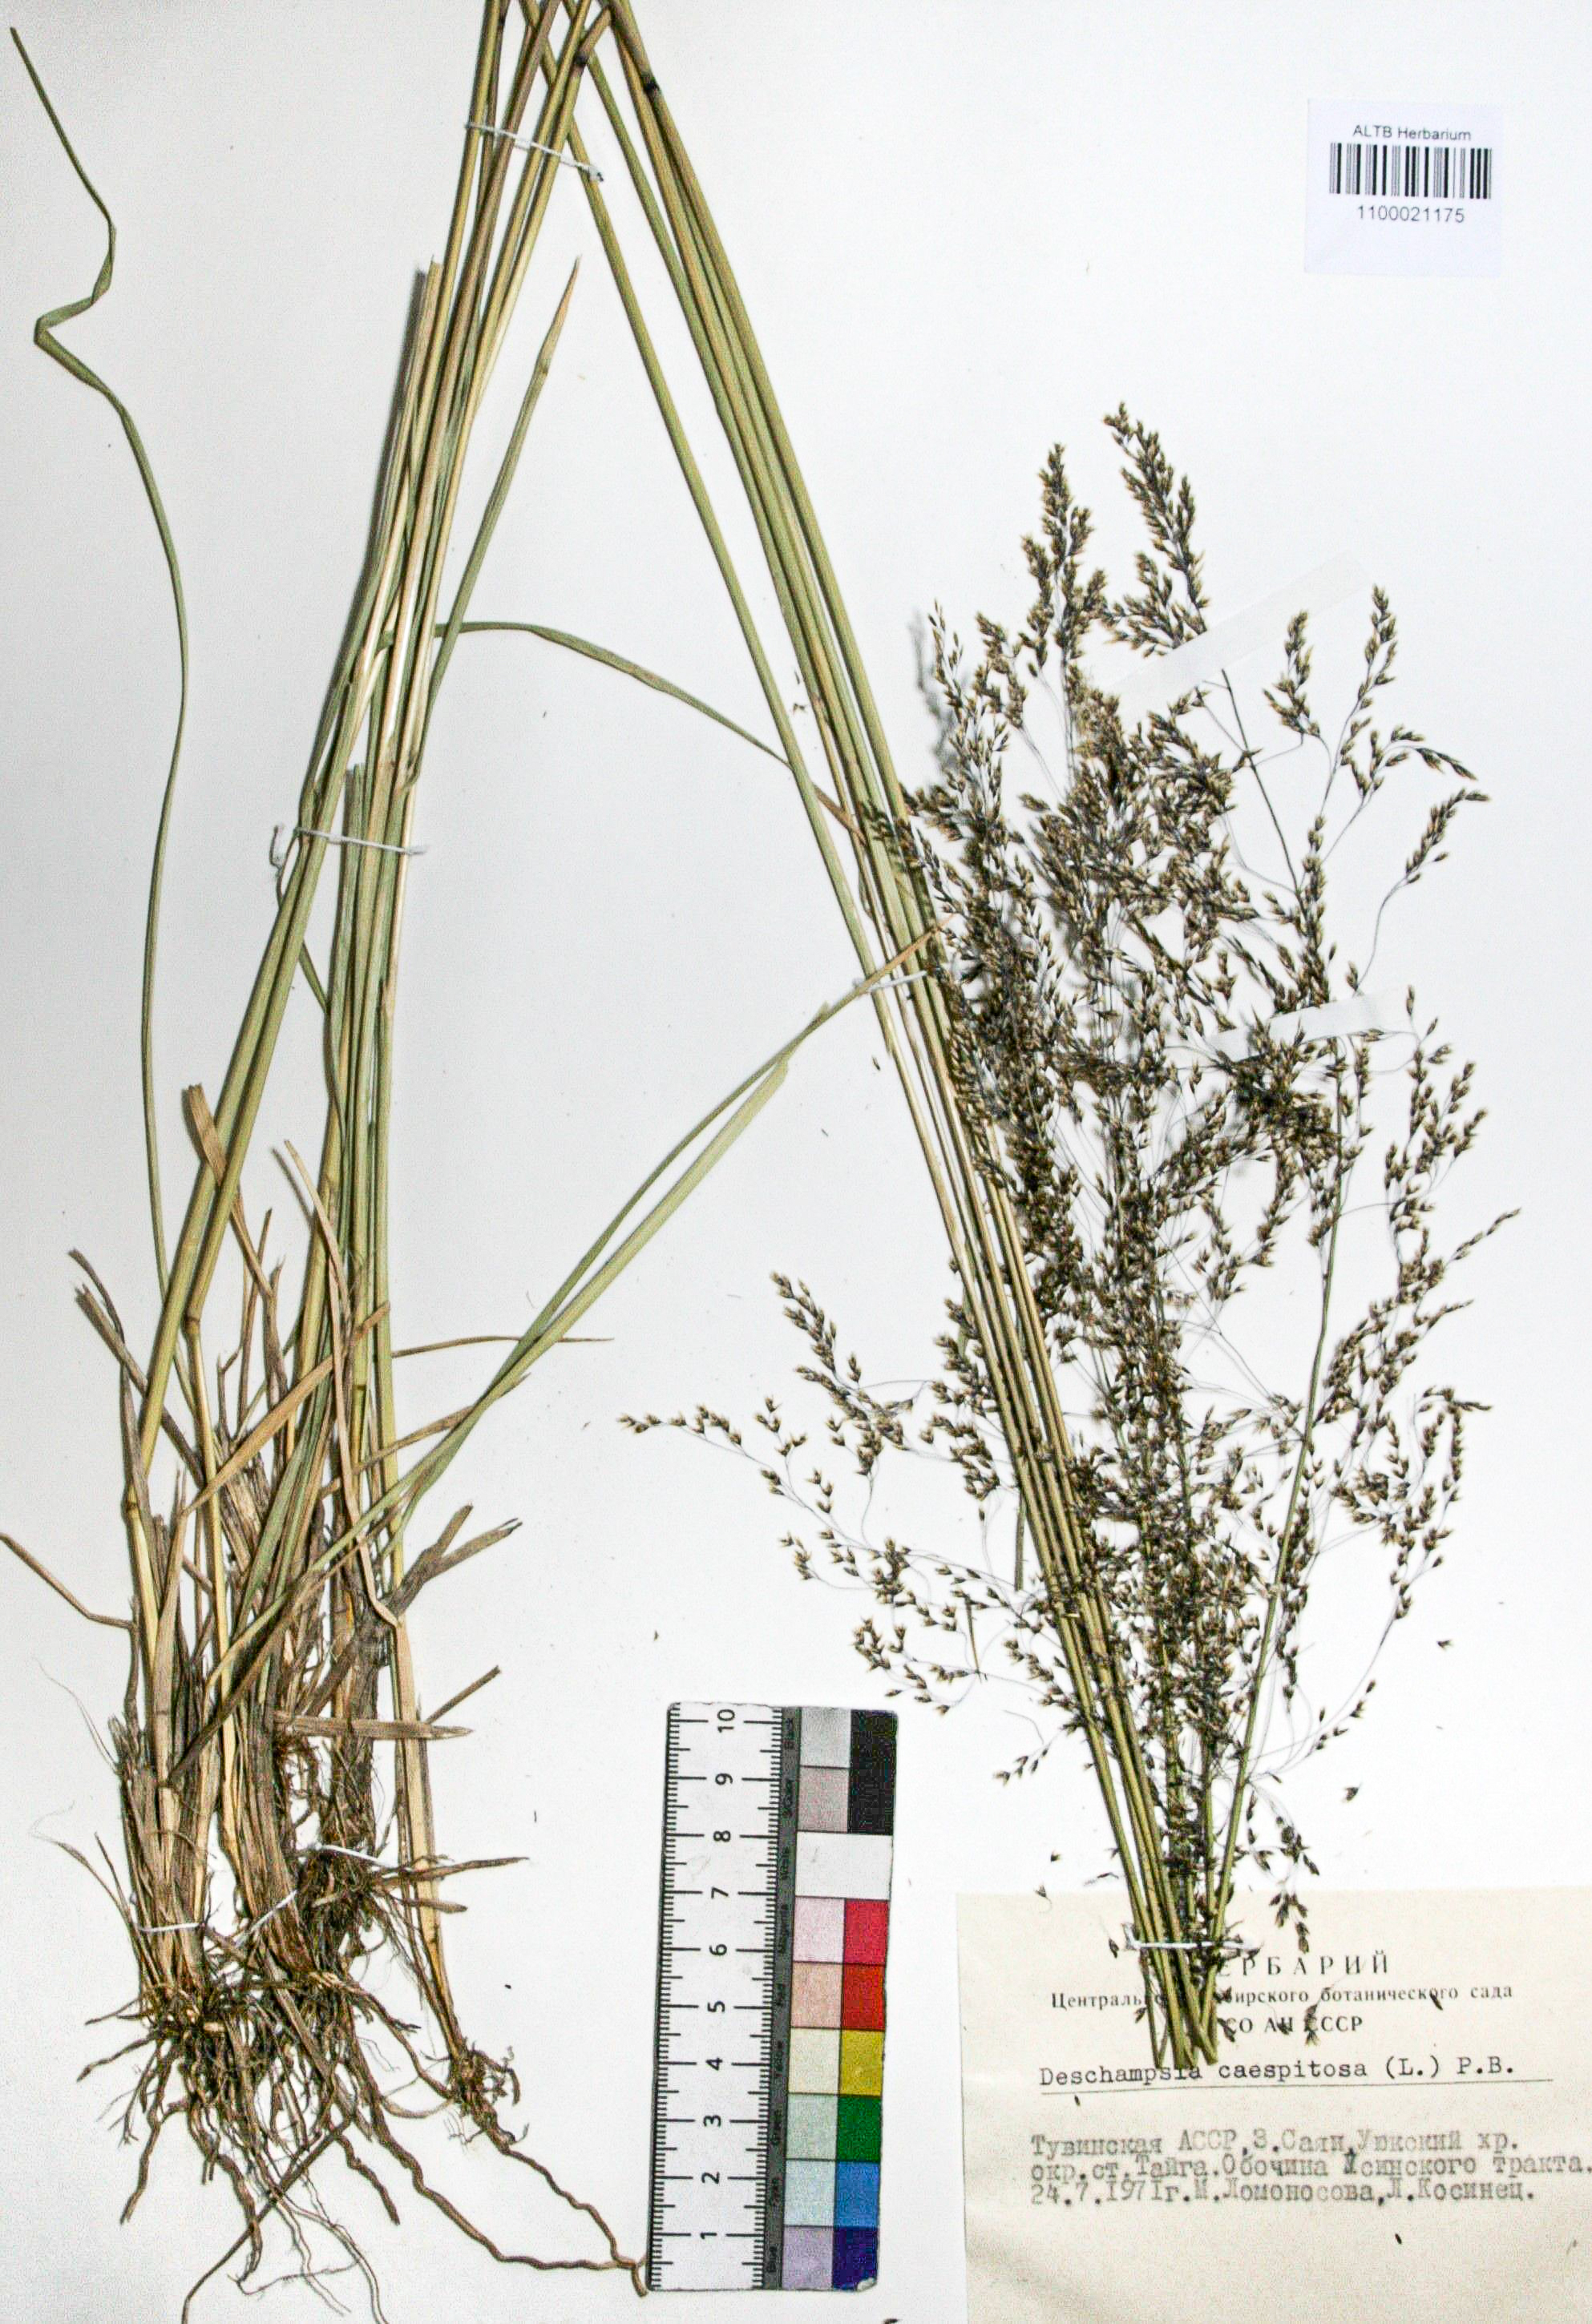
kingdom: Plantae
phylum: Tracheophyta
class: Liliopsida
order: Poales
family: Poaceae
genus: Deschampsia
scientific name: Deschampsia cespitosa
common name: Tufted hair-grass
